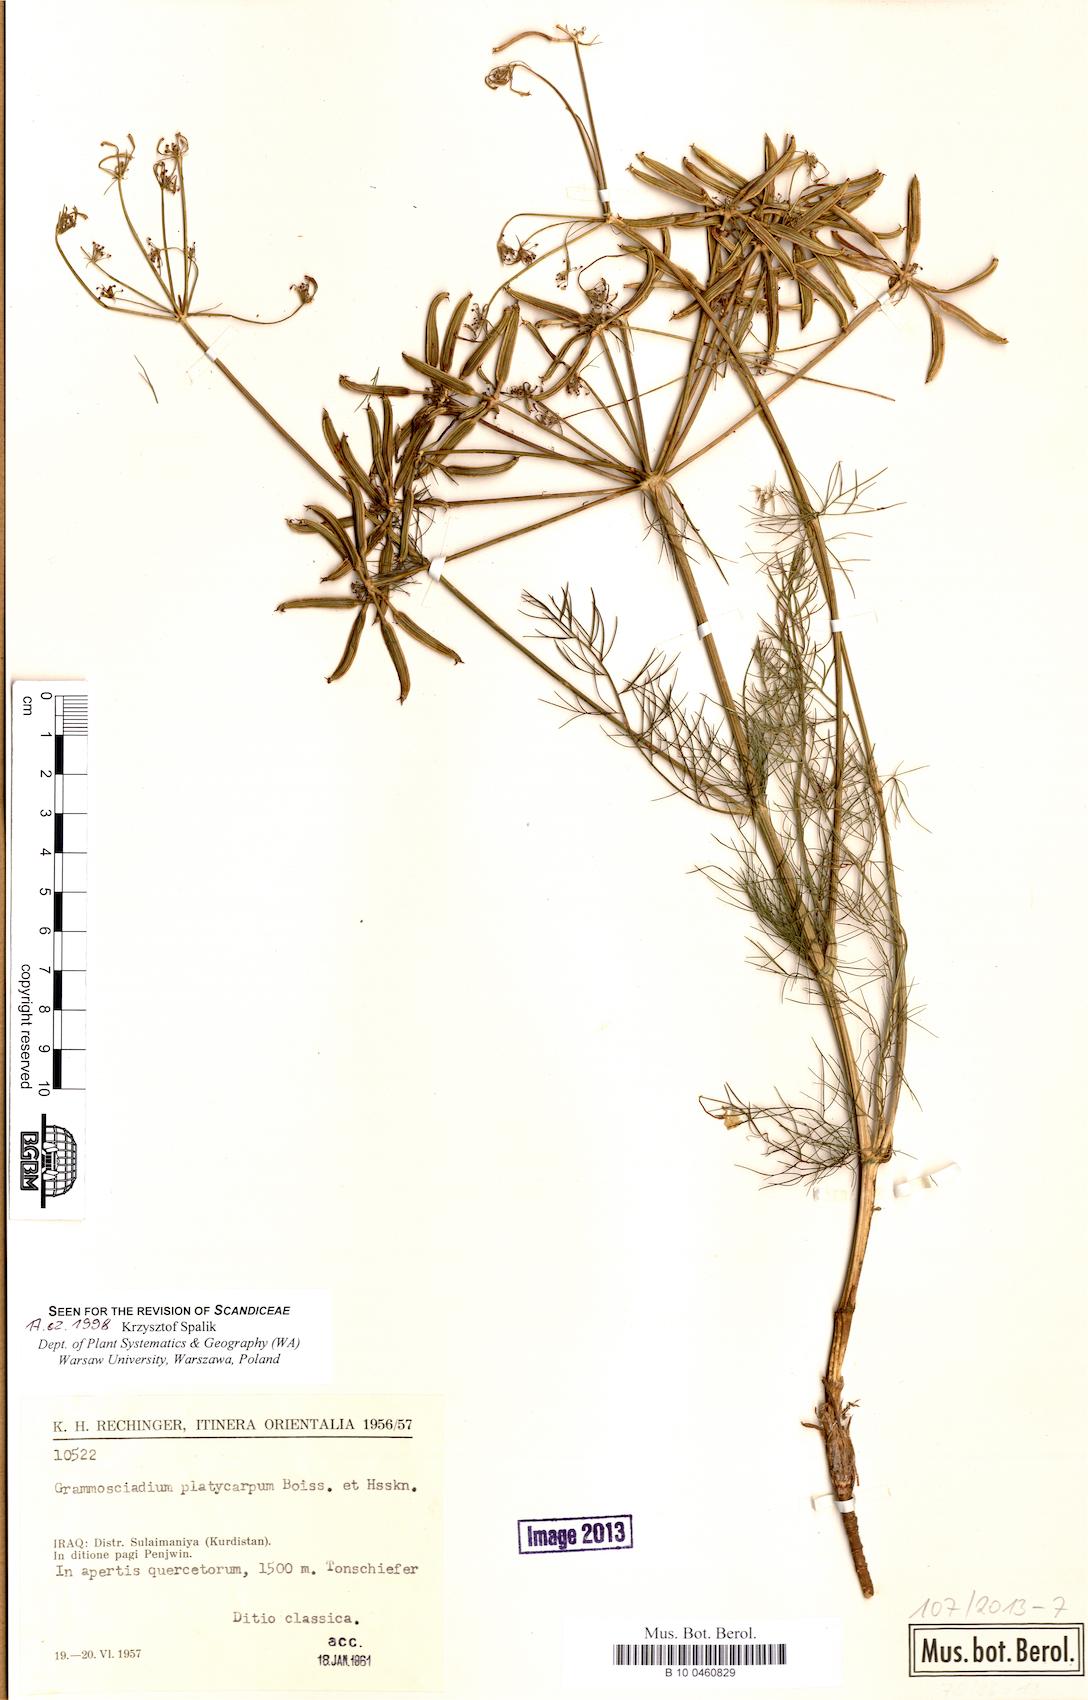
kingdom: Plantae
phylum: Tracheophyta
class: Magnoliopsida
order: Apiales
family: Apiaceae
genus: Caropodium
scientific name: Caropodium platycarpum
